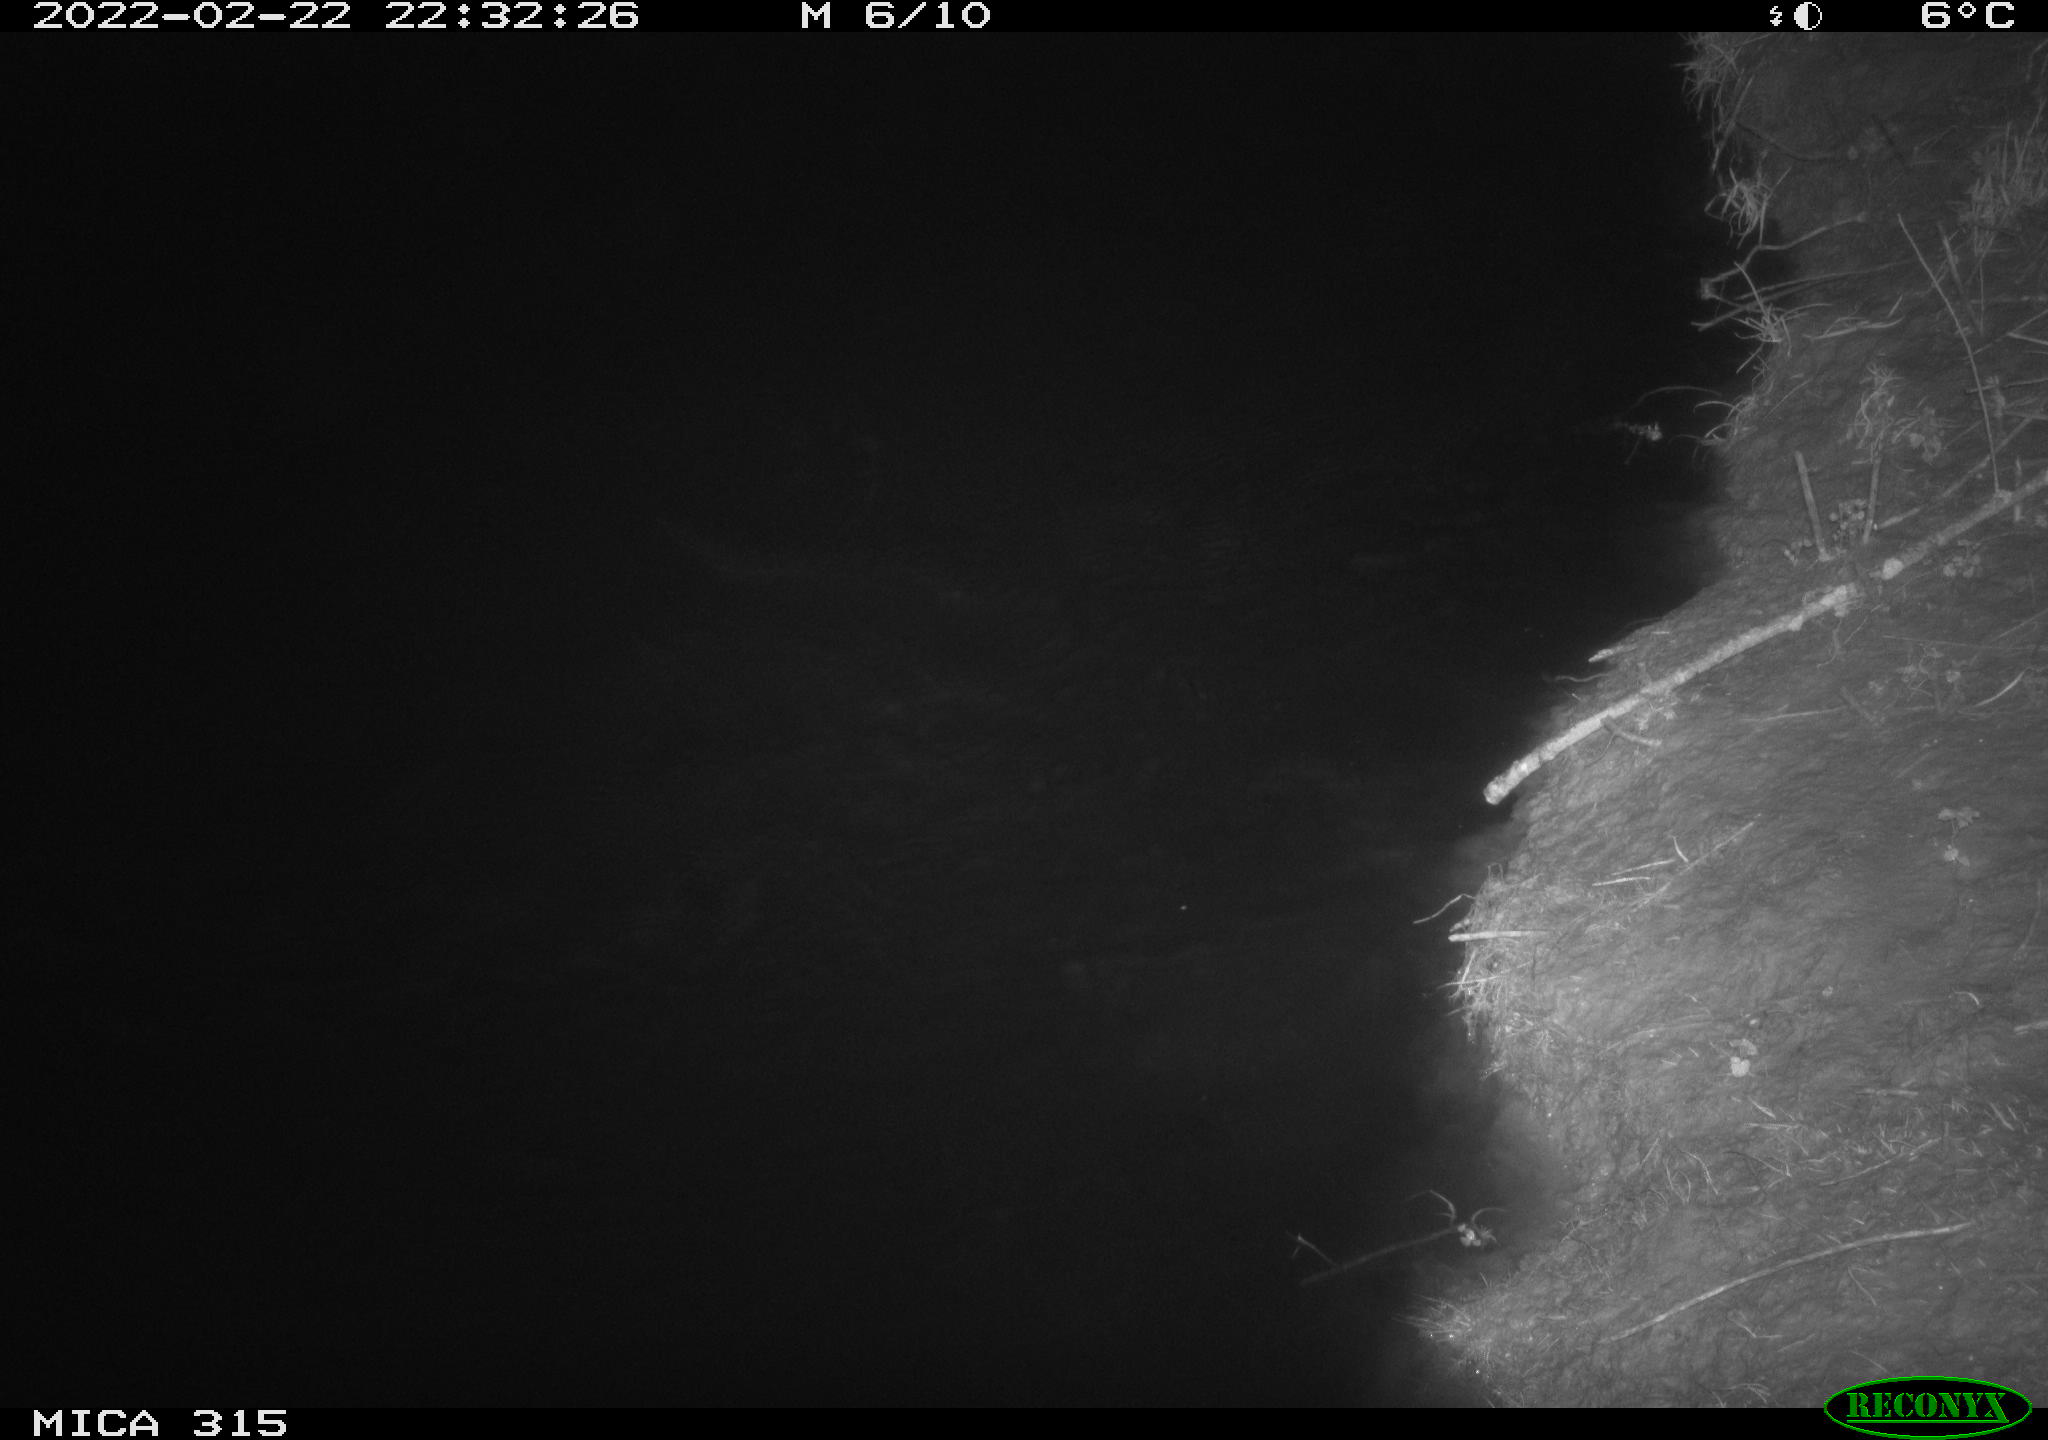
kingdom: Animalia
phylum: Chordata
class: Mammalia
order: Rodentia
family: Cricetidae
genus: Ondatra
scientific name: Ondatra zibethicus
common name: Muskrat
